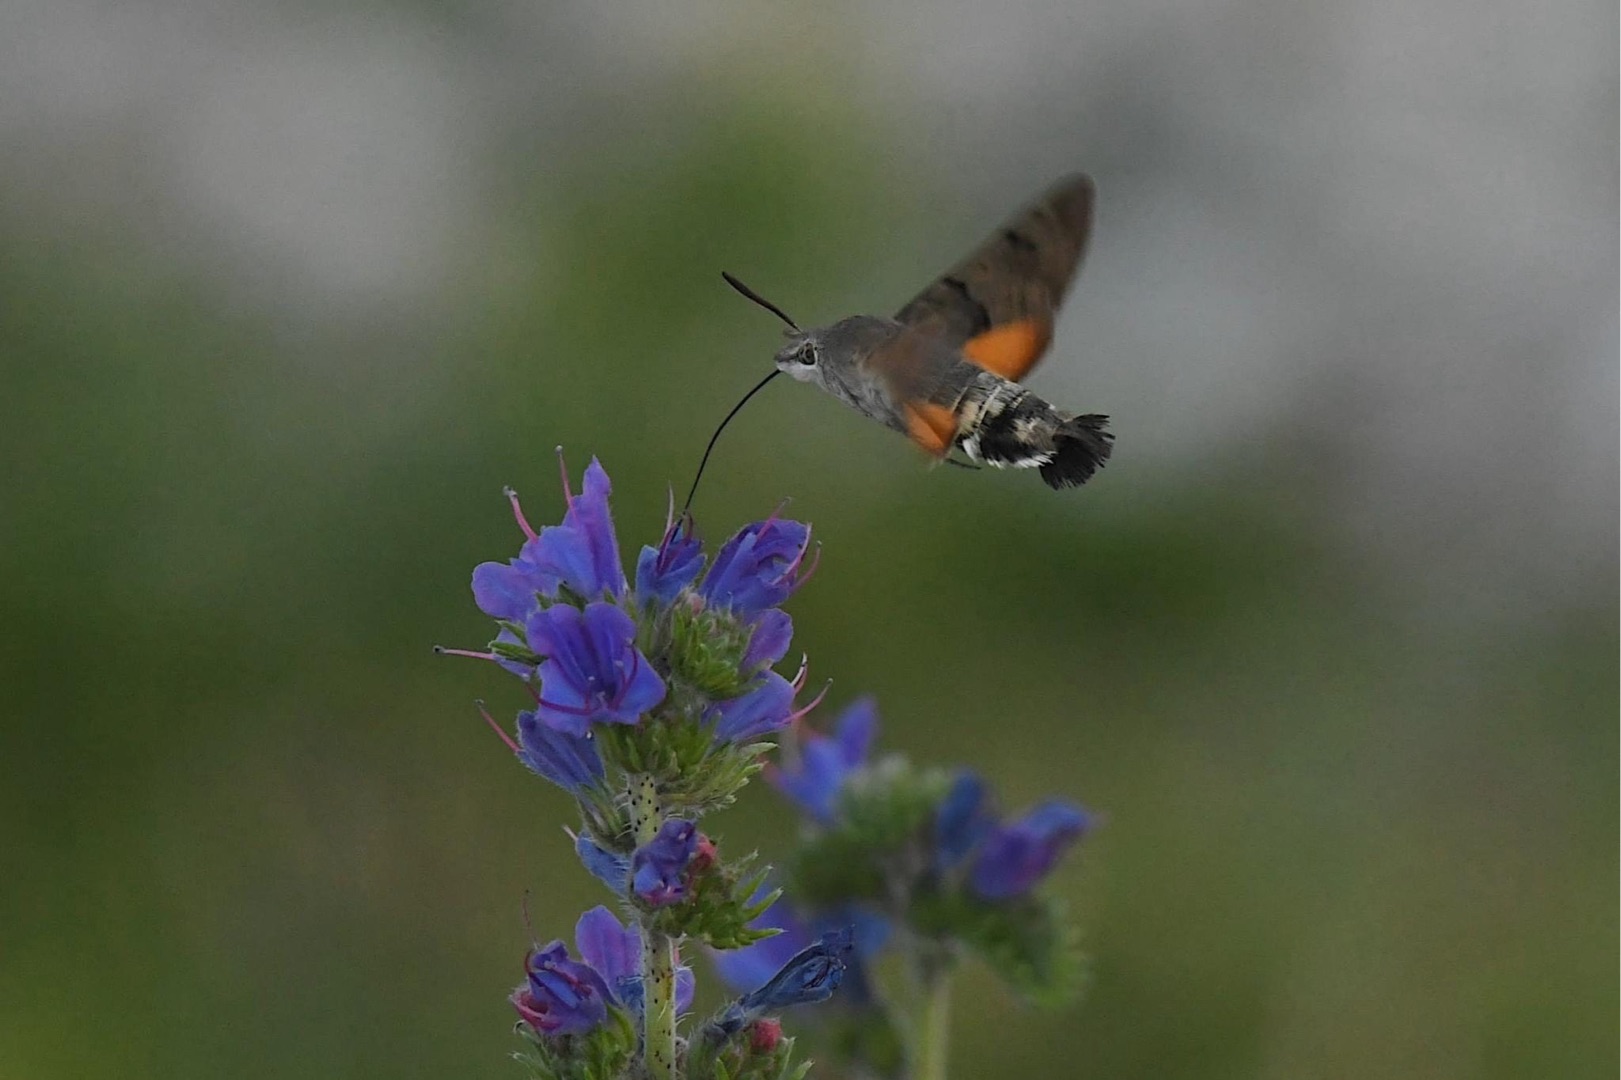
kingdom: Animalia
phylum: Arthropoda
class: Insecta
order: Lepidoptera
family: Sphingidae
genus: Macroglossum
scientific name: Macroglossum stellatarum
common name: Duehale
